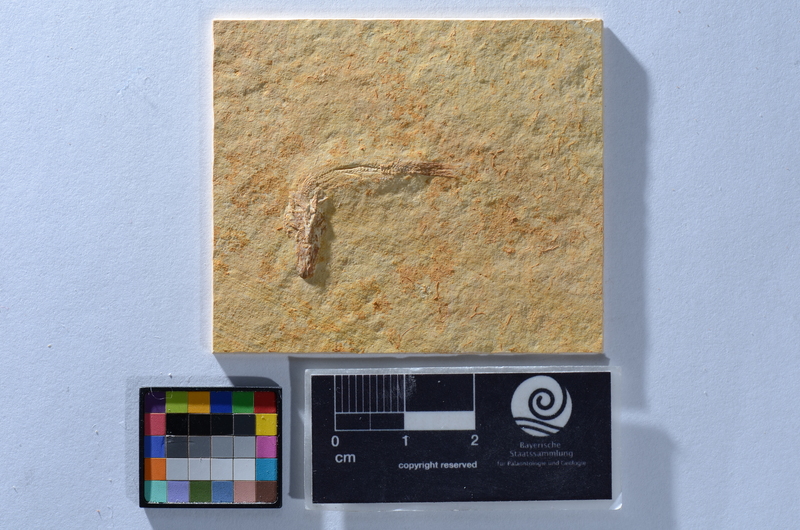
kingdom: Animalia
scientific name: Animalia
